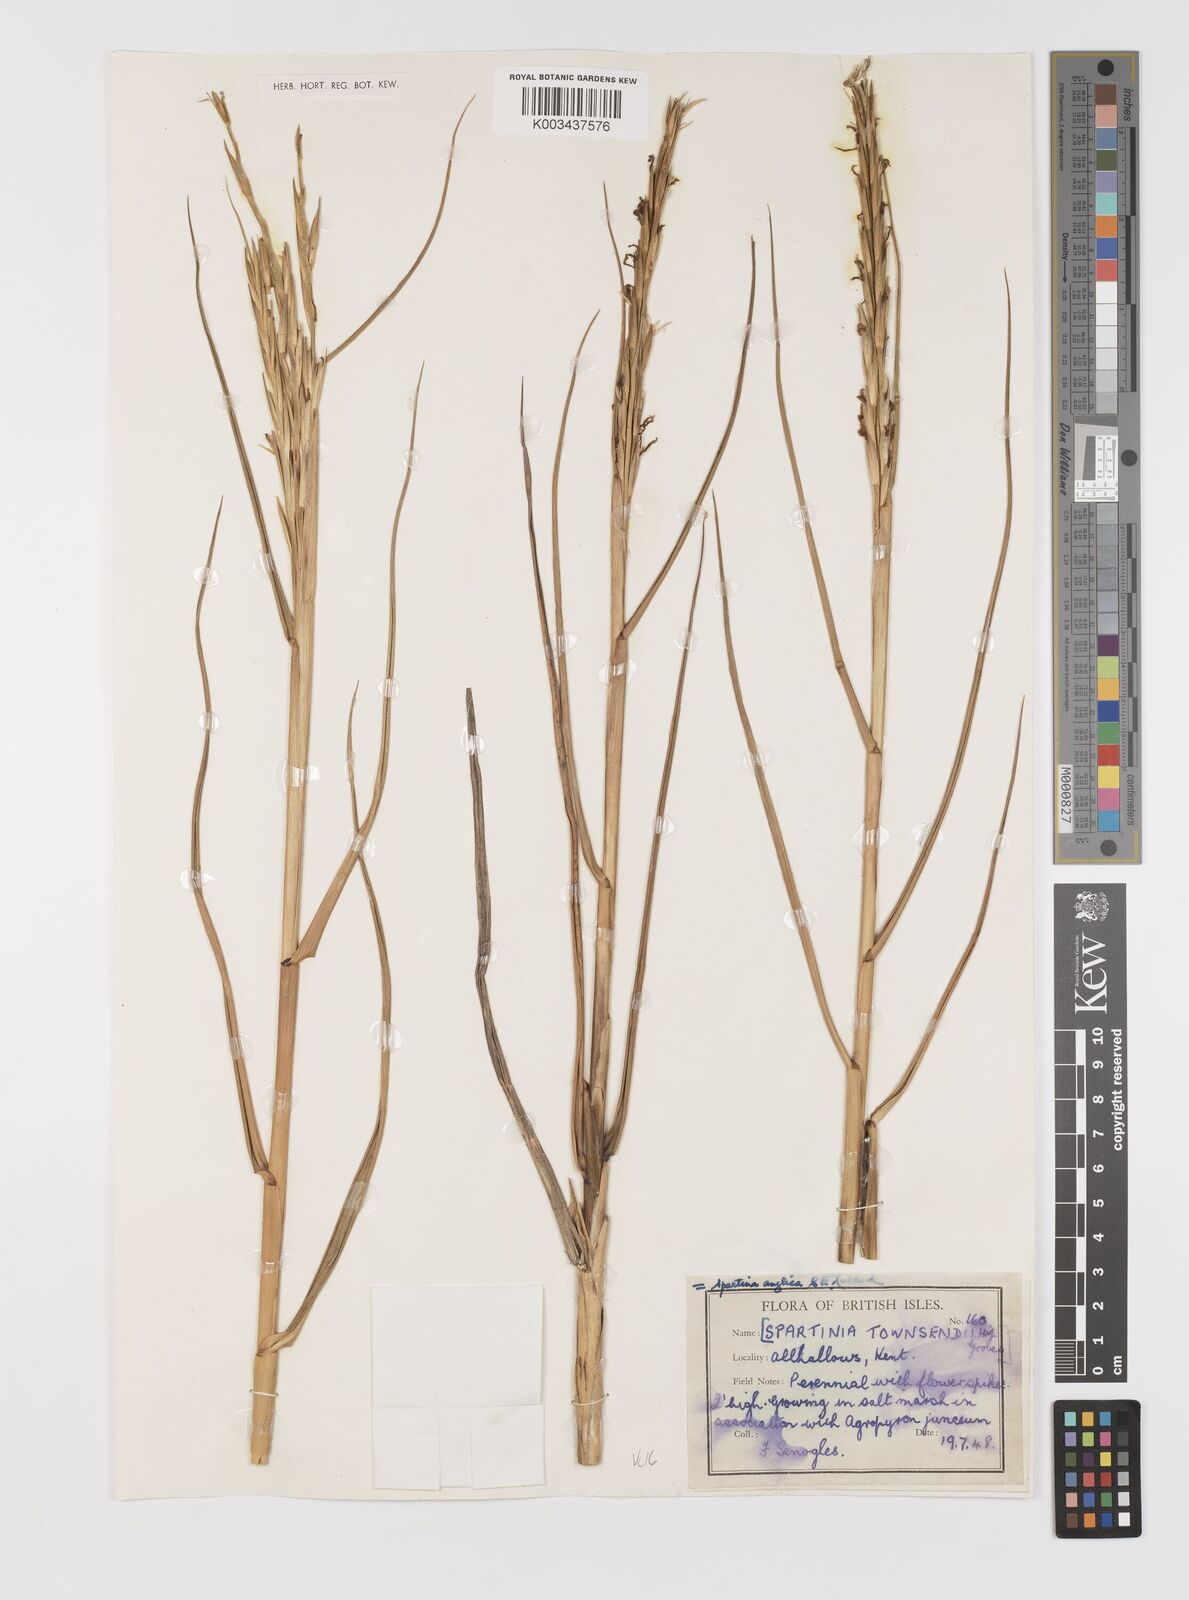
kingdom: Plantae
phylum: Tracheophyta
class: Liliopsida
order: Poales
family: Poaceae
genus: Sporobolus
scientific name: Sporobolus anglicus
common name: English cordgrass
